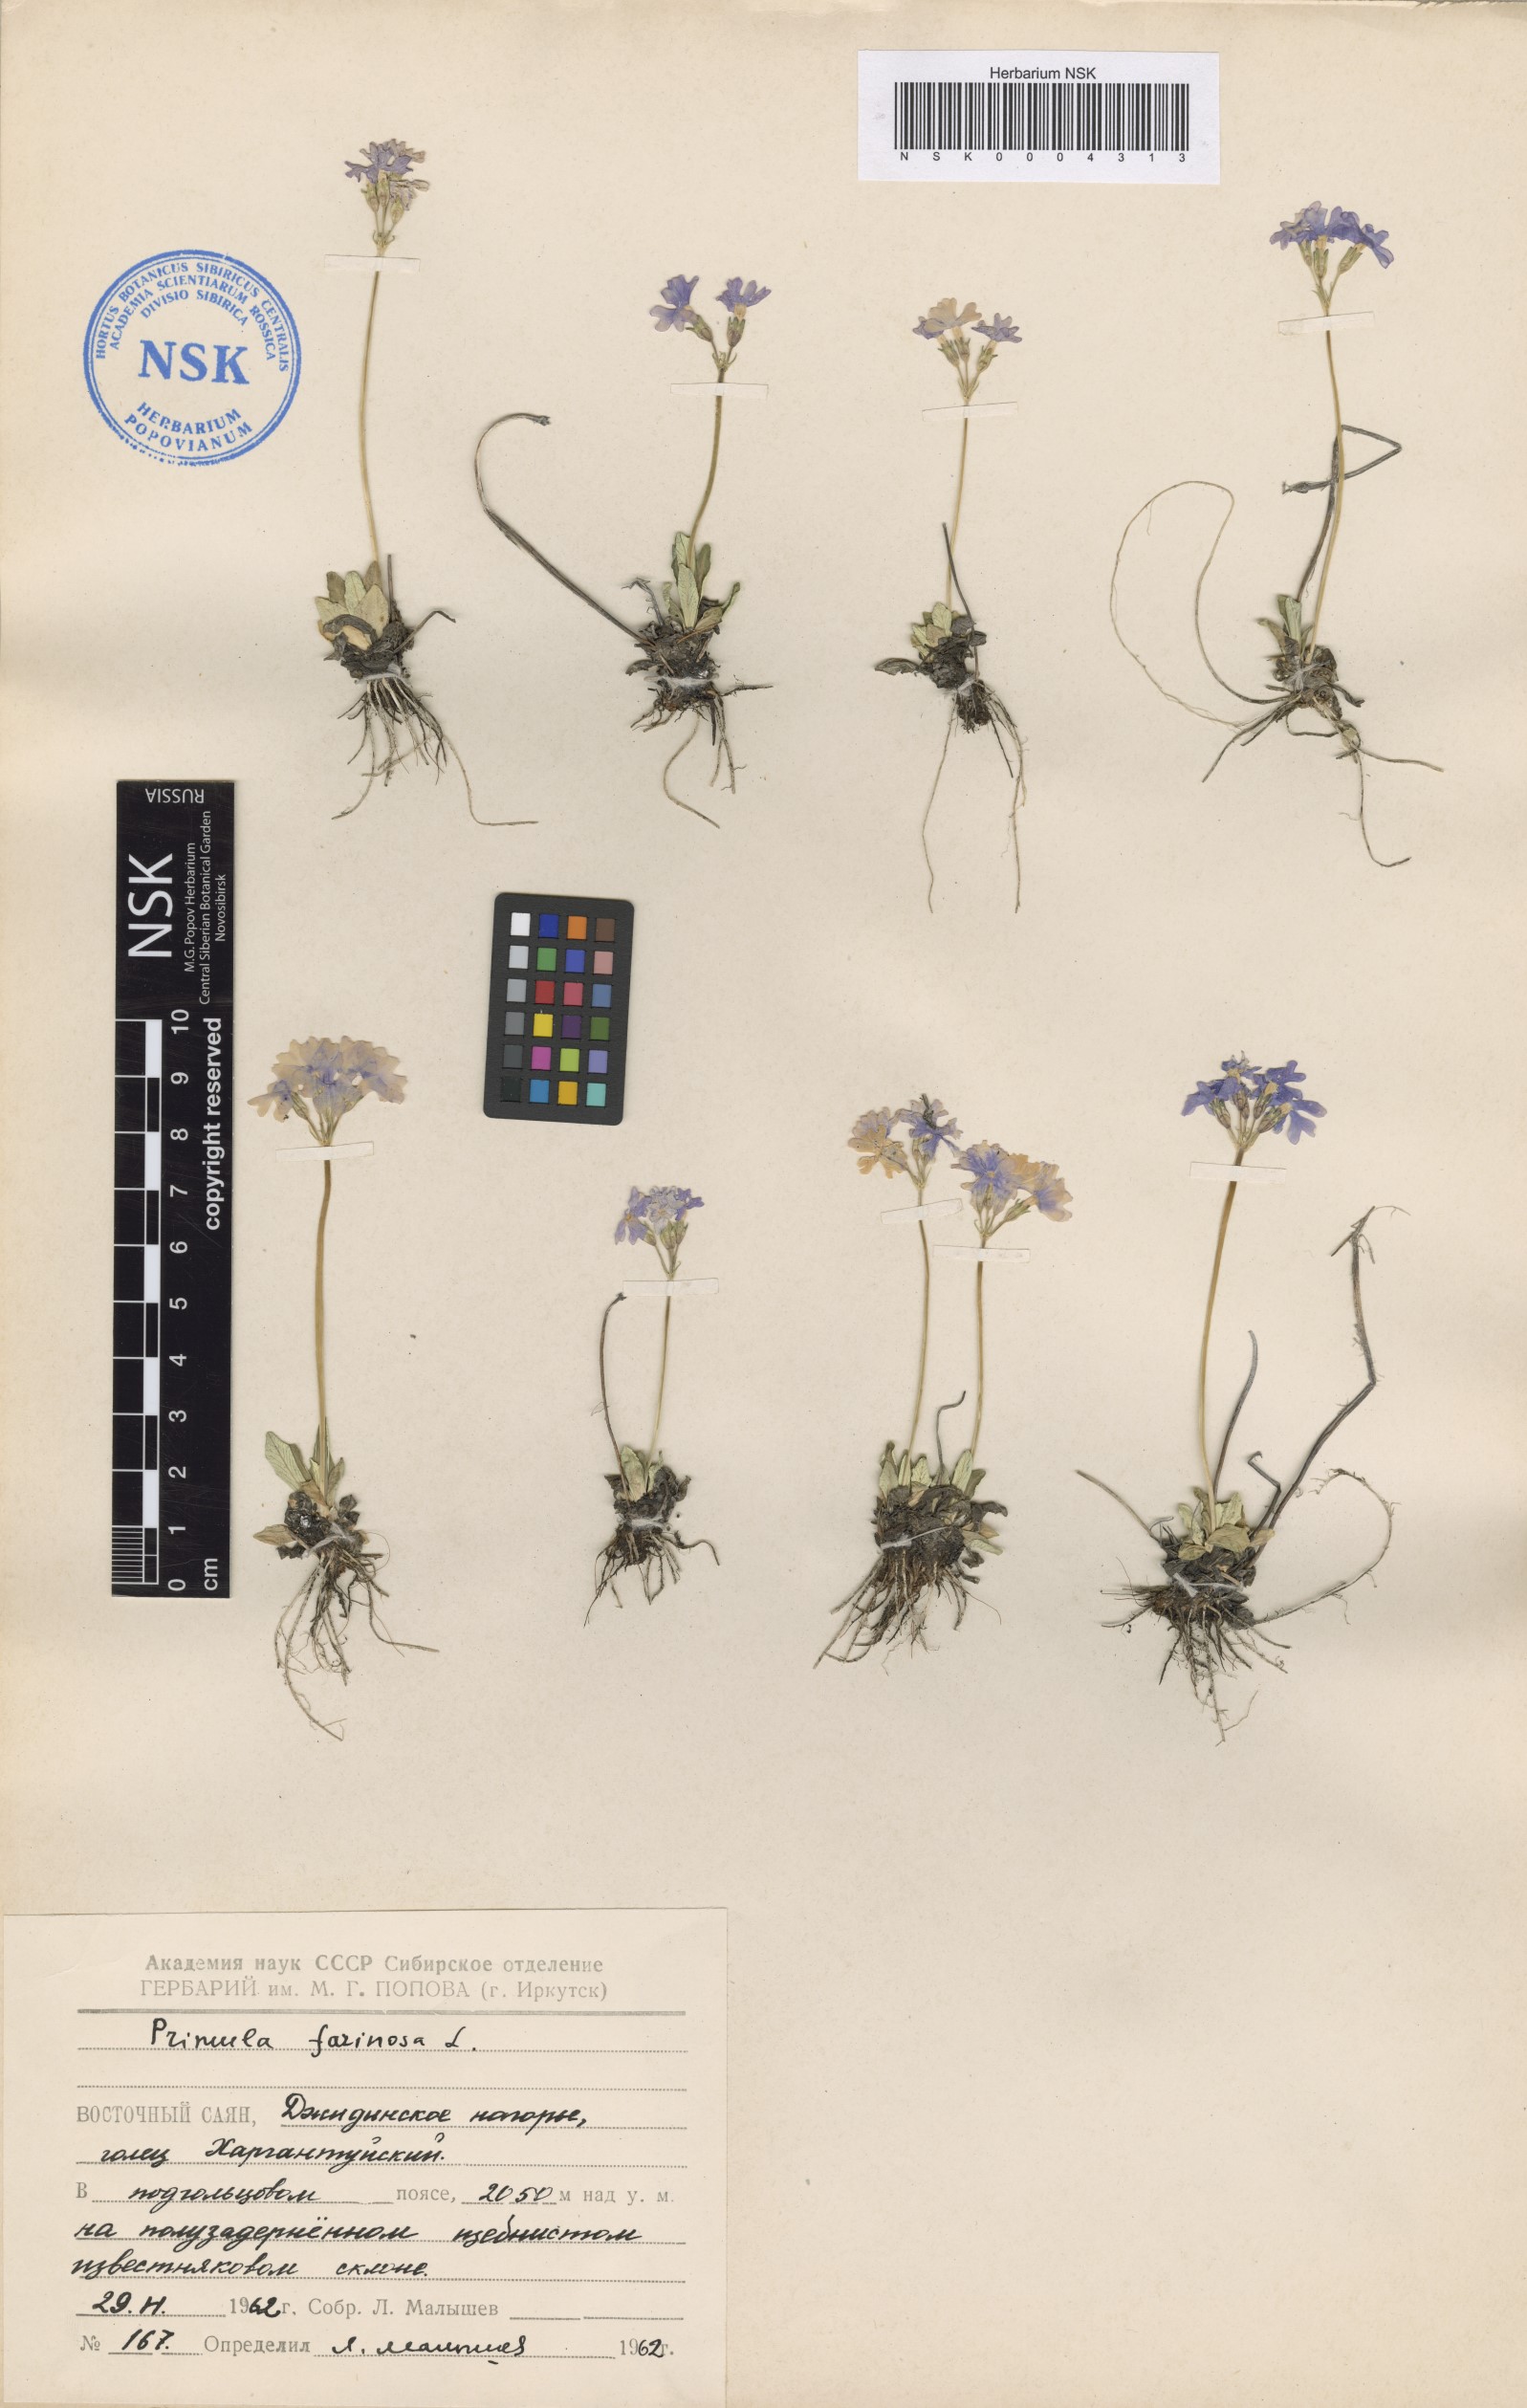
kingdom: Plantae
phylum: Tracheophyta
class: Magnoliopsida
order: Ericales
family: Primulaceae
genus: Primula
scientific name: Primula farinosa
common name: Bird's-eye primrose
